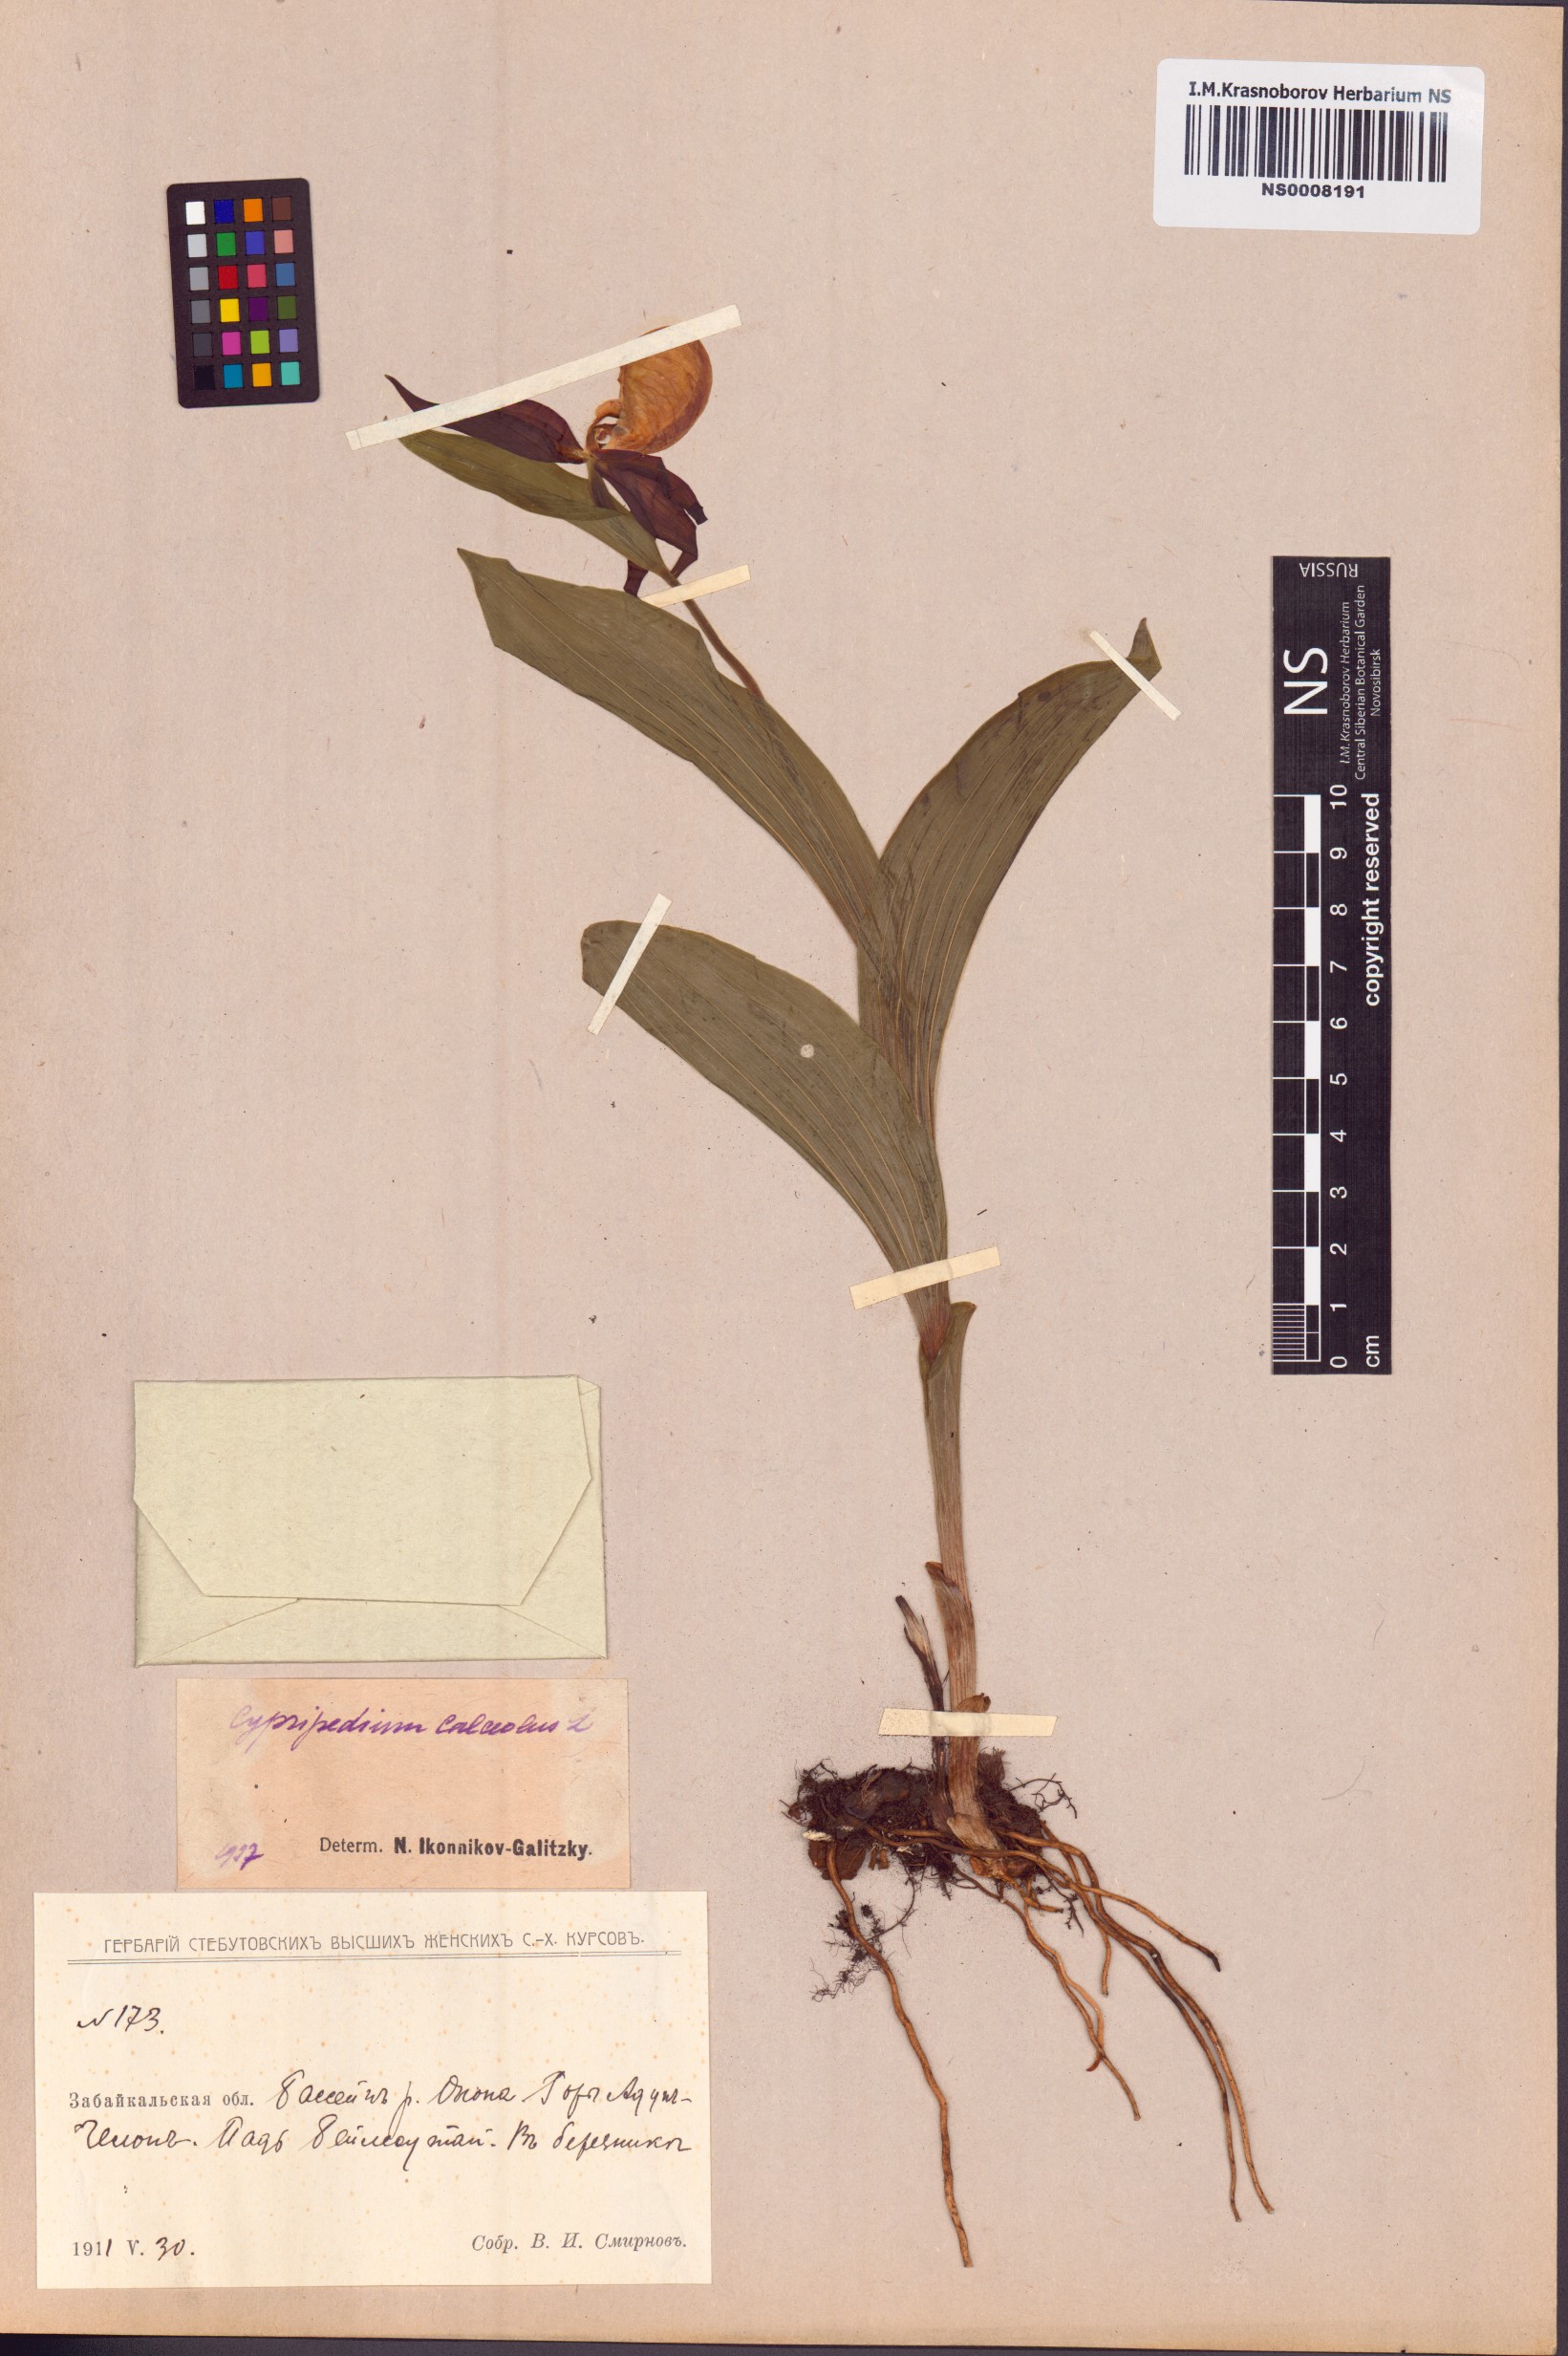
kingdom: Plantae
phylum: Tracheophyta
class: Liliopsida
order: Asparagales
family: Orchidaceae
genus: Cypripedium
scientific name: Cypripedium calceolus
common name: Lady's-slipper
